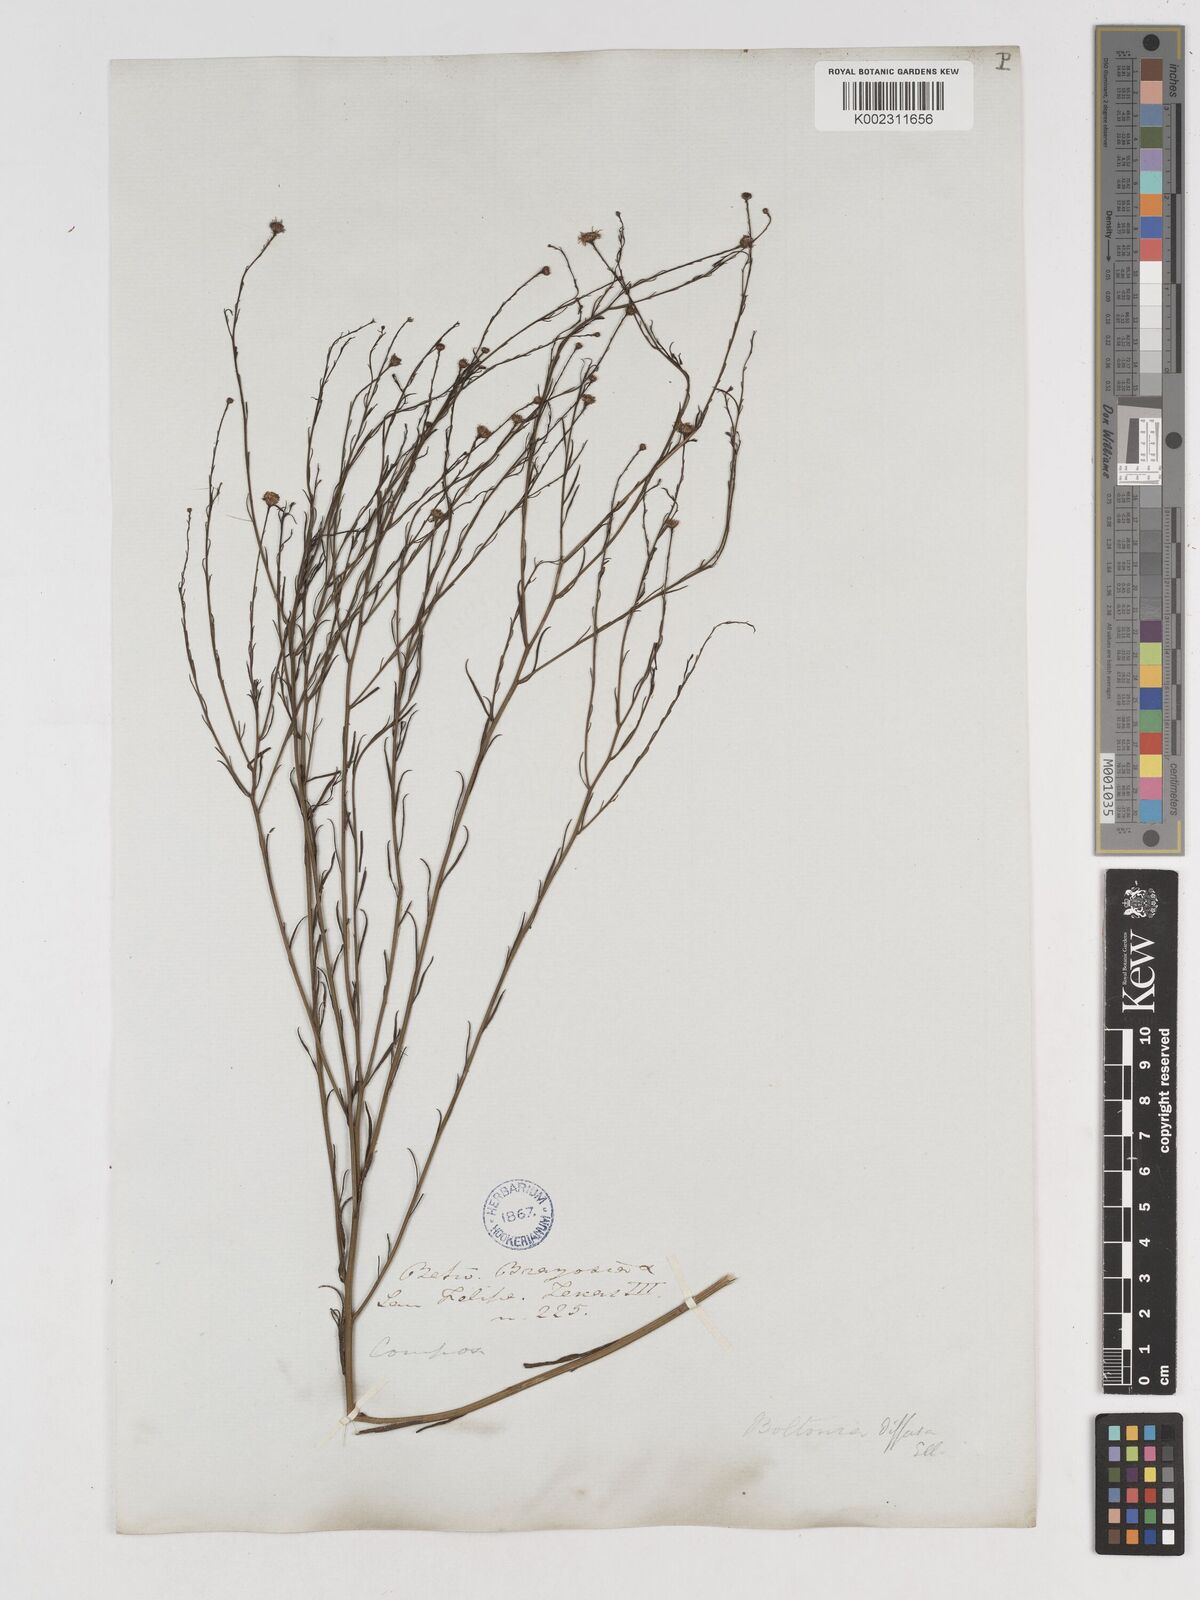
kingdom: Plantae
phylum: Tracheophyta
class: Magnoliopsida
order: Asterales
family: Asteraceae
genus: Boltonia
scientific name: Boltonia diffusa
